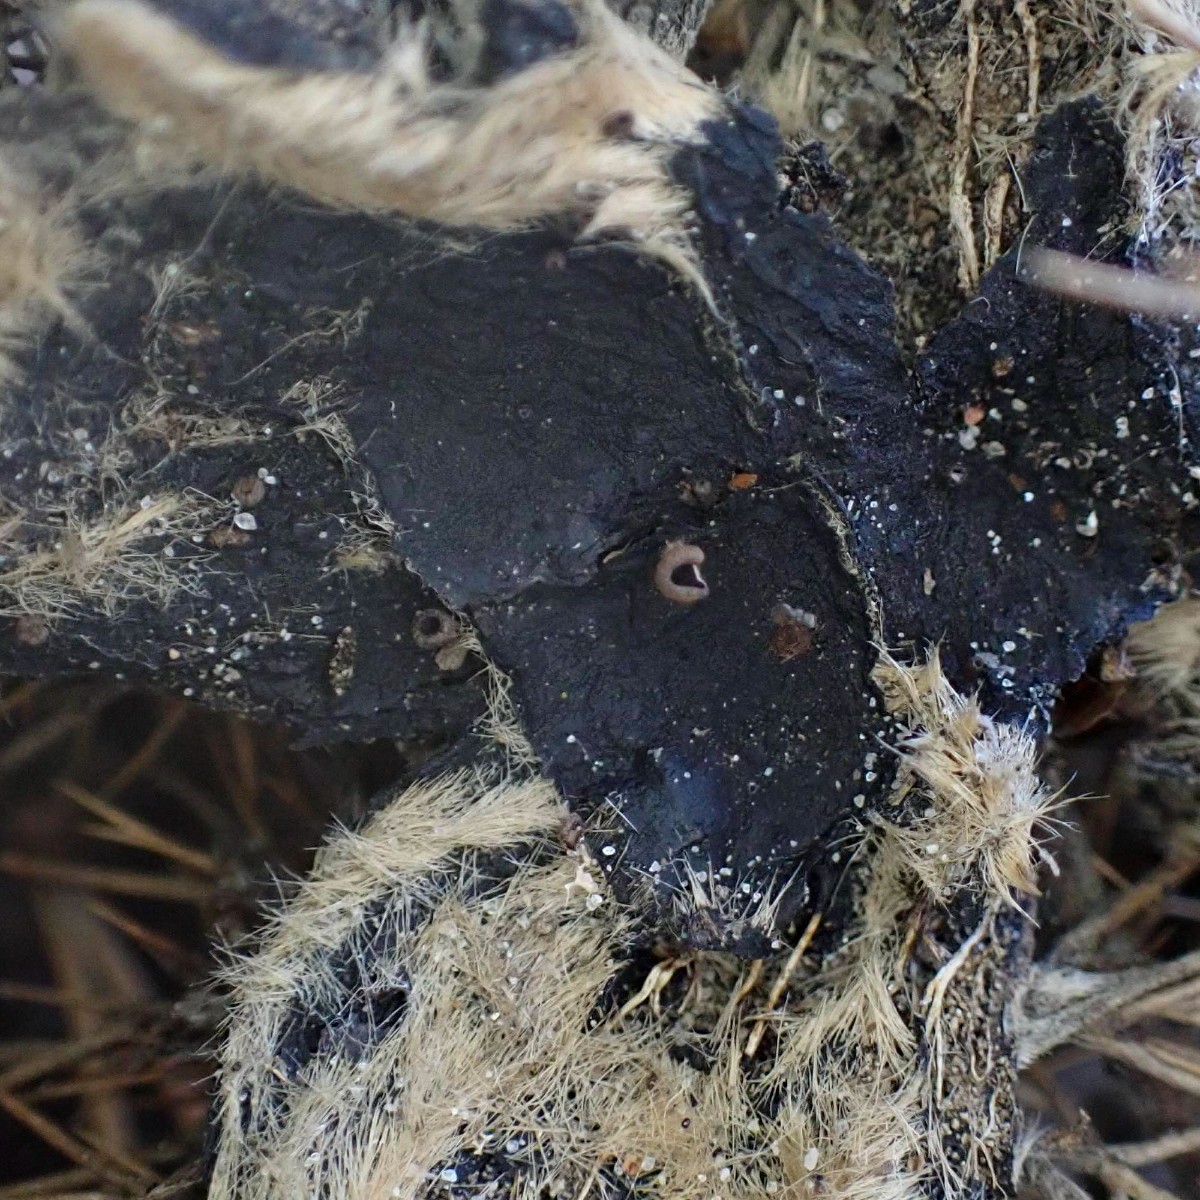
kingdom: Fungi
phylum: Ascomycota
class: Leotiomycetes
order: Helotiales
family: Rutstroemiaceae
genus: Lanzia
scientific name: Lanzia echinophila
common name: kastanie-brunskive
